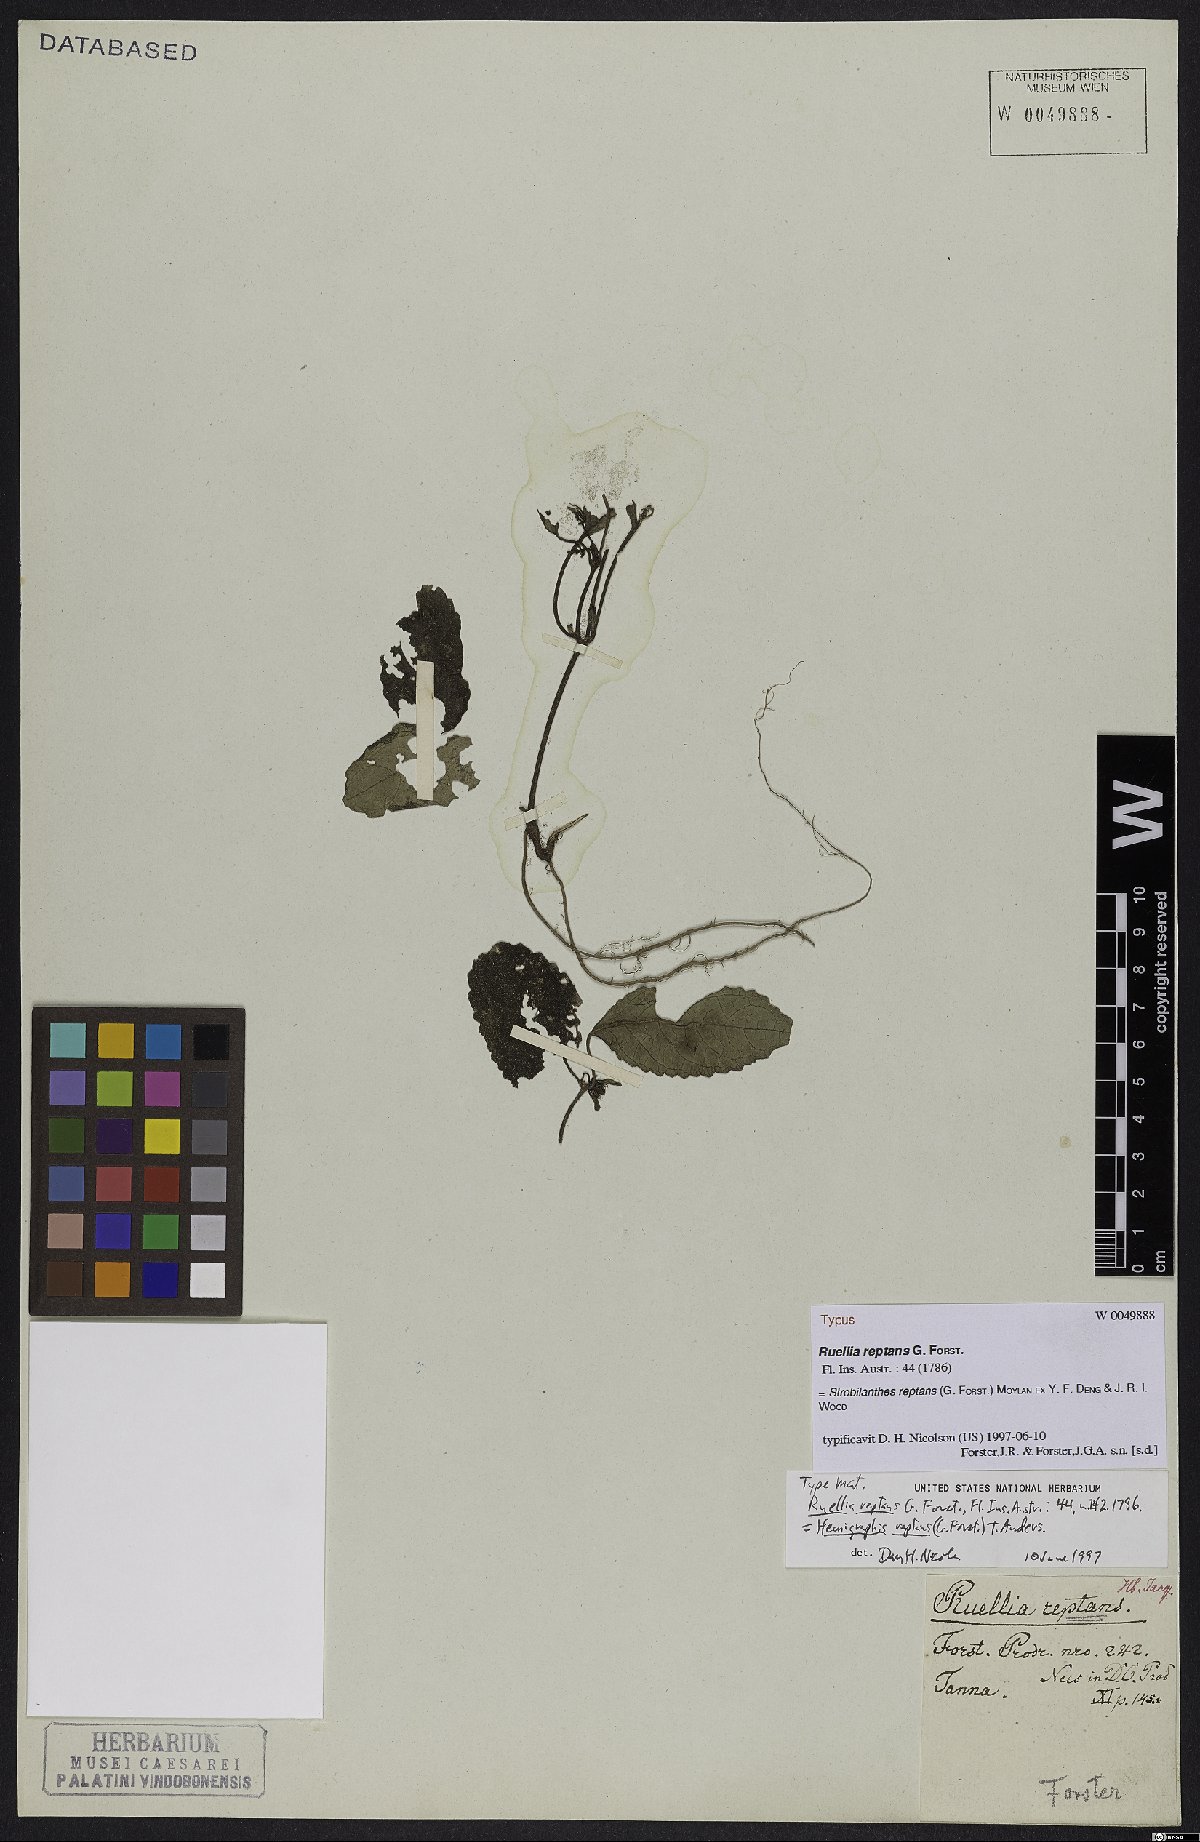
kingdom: Plantae
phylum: Tracheophyta
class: Magnoliopsida
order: Lamiales
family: Acanthaceae
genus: Strobilanthes
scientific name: Strobilanthes reptans
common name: Acanthaceae
